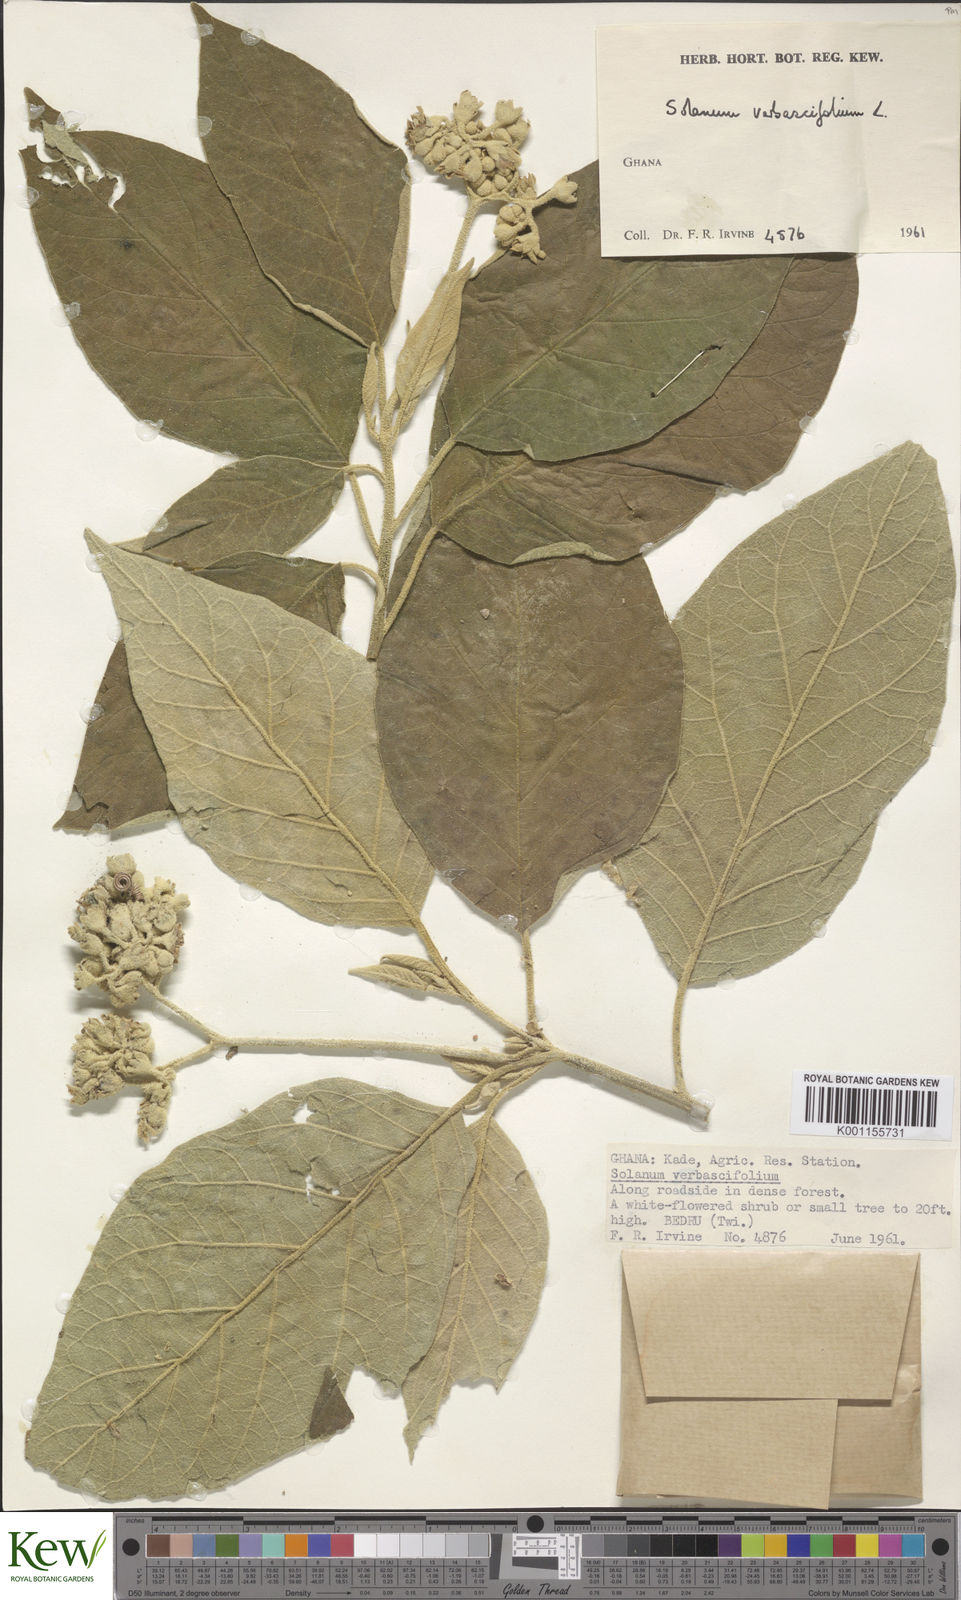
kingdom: Plantae
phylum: Tracheophyta
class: Magnoliopsida
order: Solanales
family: Solanaceae
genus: Solanum
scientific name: Solanum erianthum
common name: Tobacco-tree
